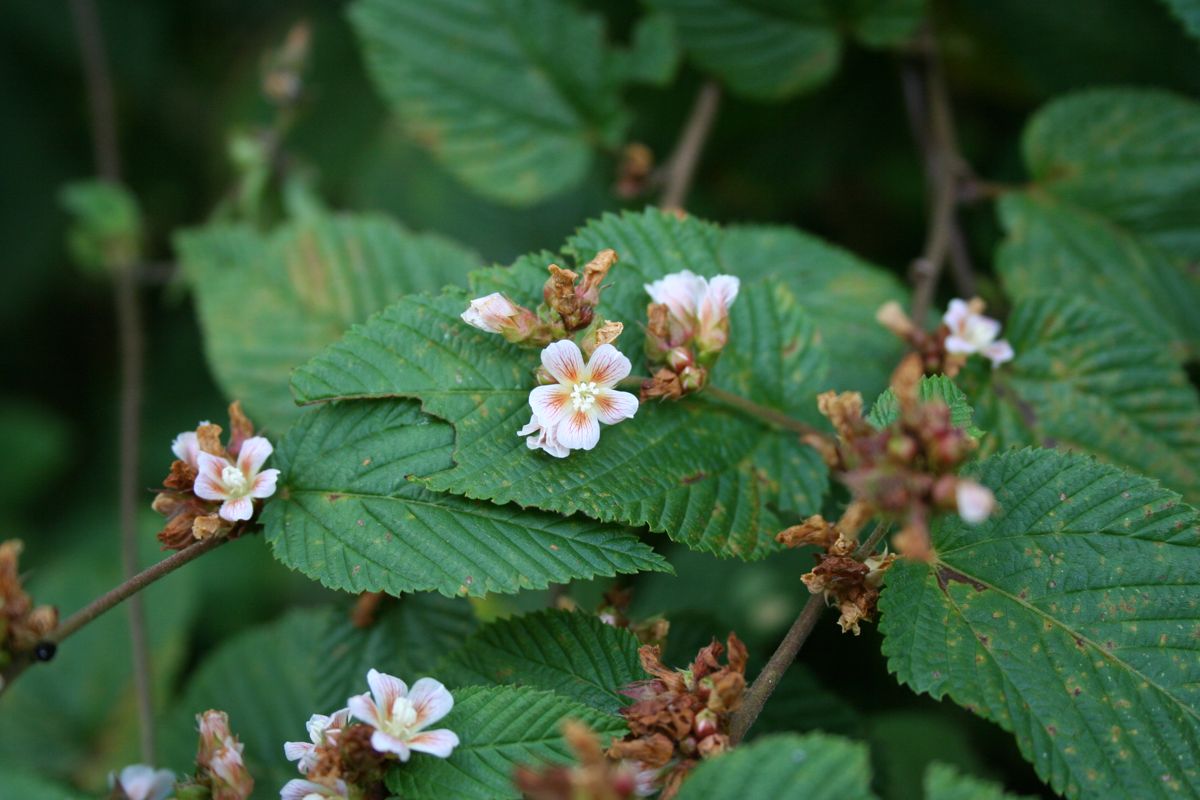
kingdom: Plantae
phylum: Tracheophyta
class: Magnoliopsida
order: Malvales
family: Malvaceae
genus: Melochia
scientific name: Melochia nodiflora
